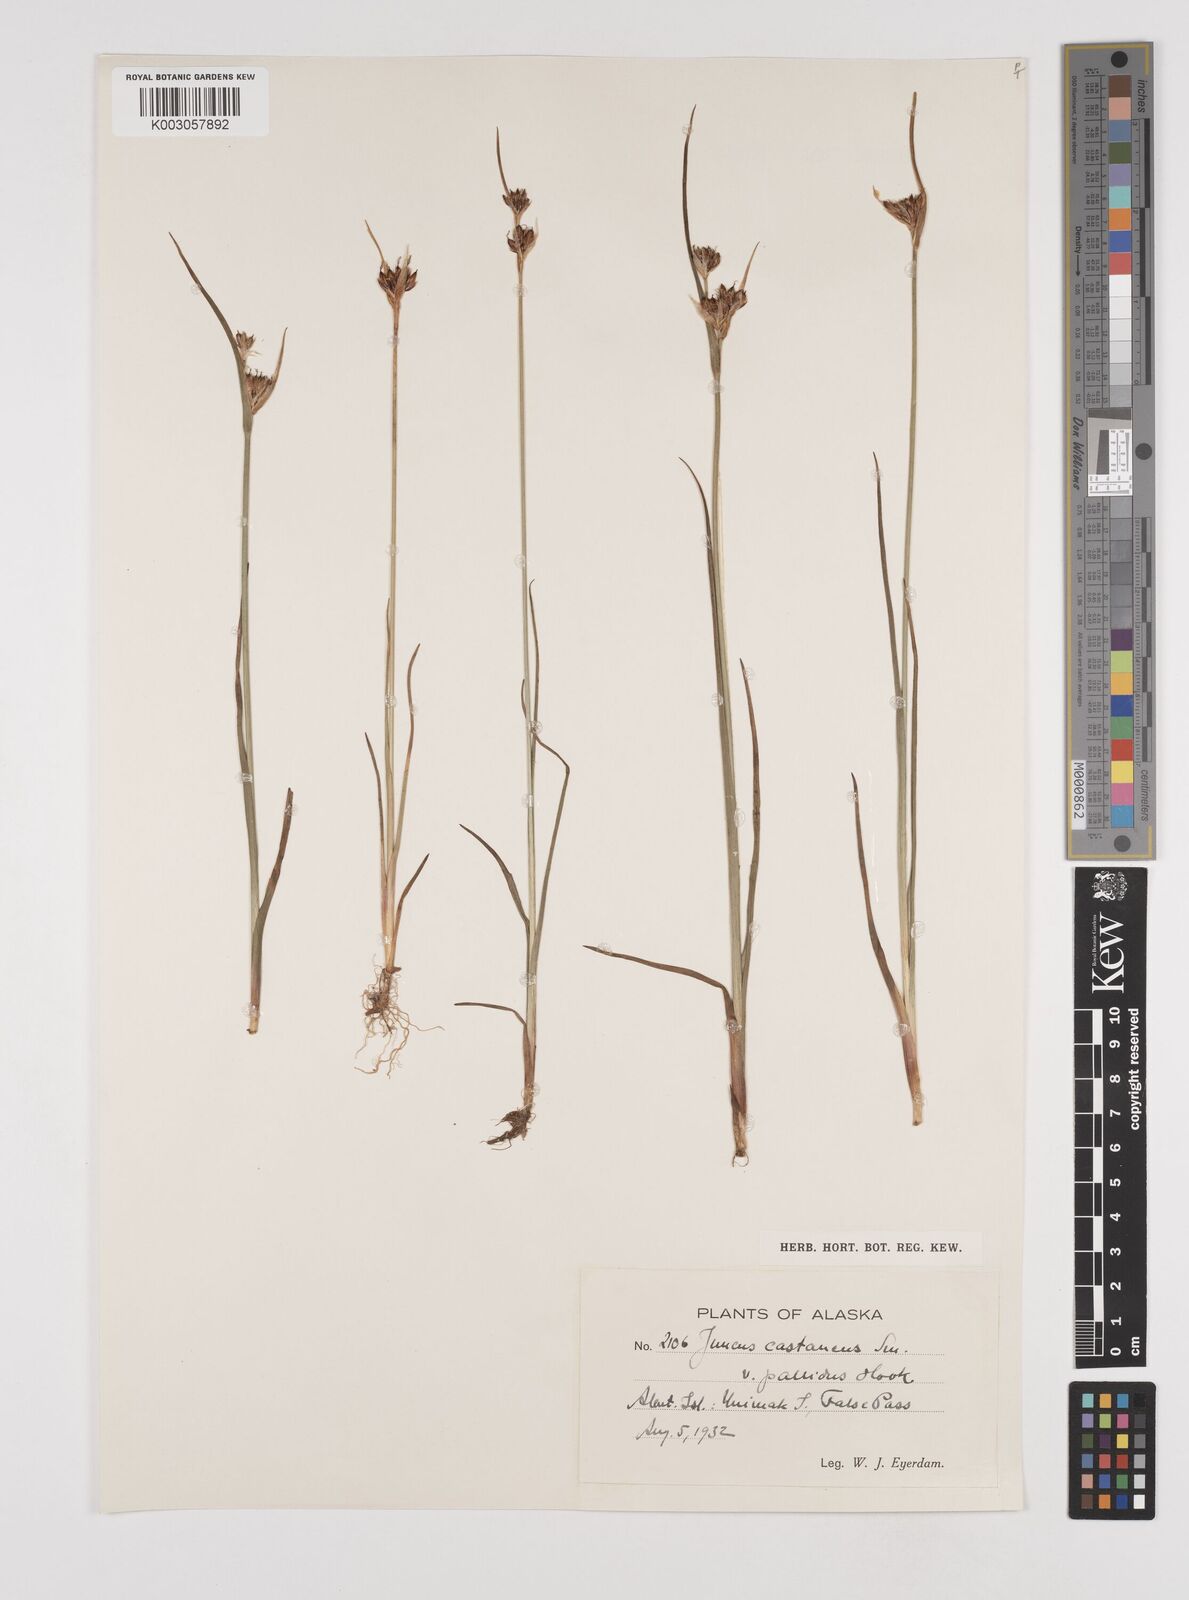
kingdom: Plantae
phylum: Tracheophyta
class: Liliopsida
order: Poales
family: Juncaceae
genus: Juncus
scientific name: Juncus castaneus
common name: Chestnut rush
